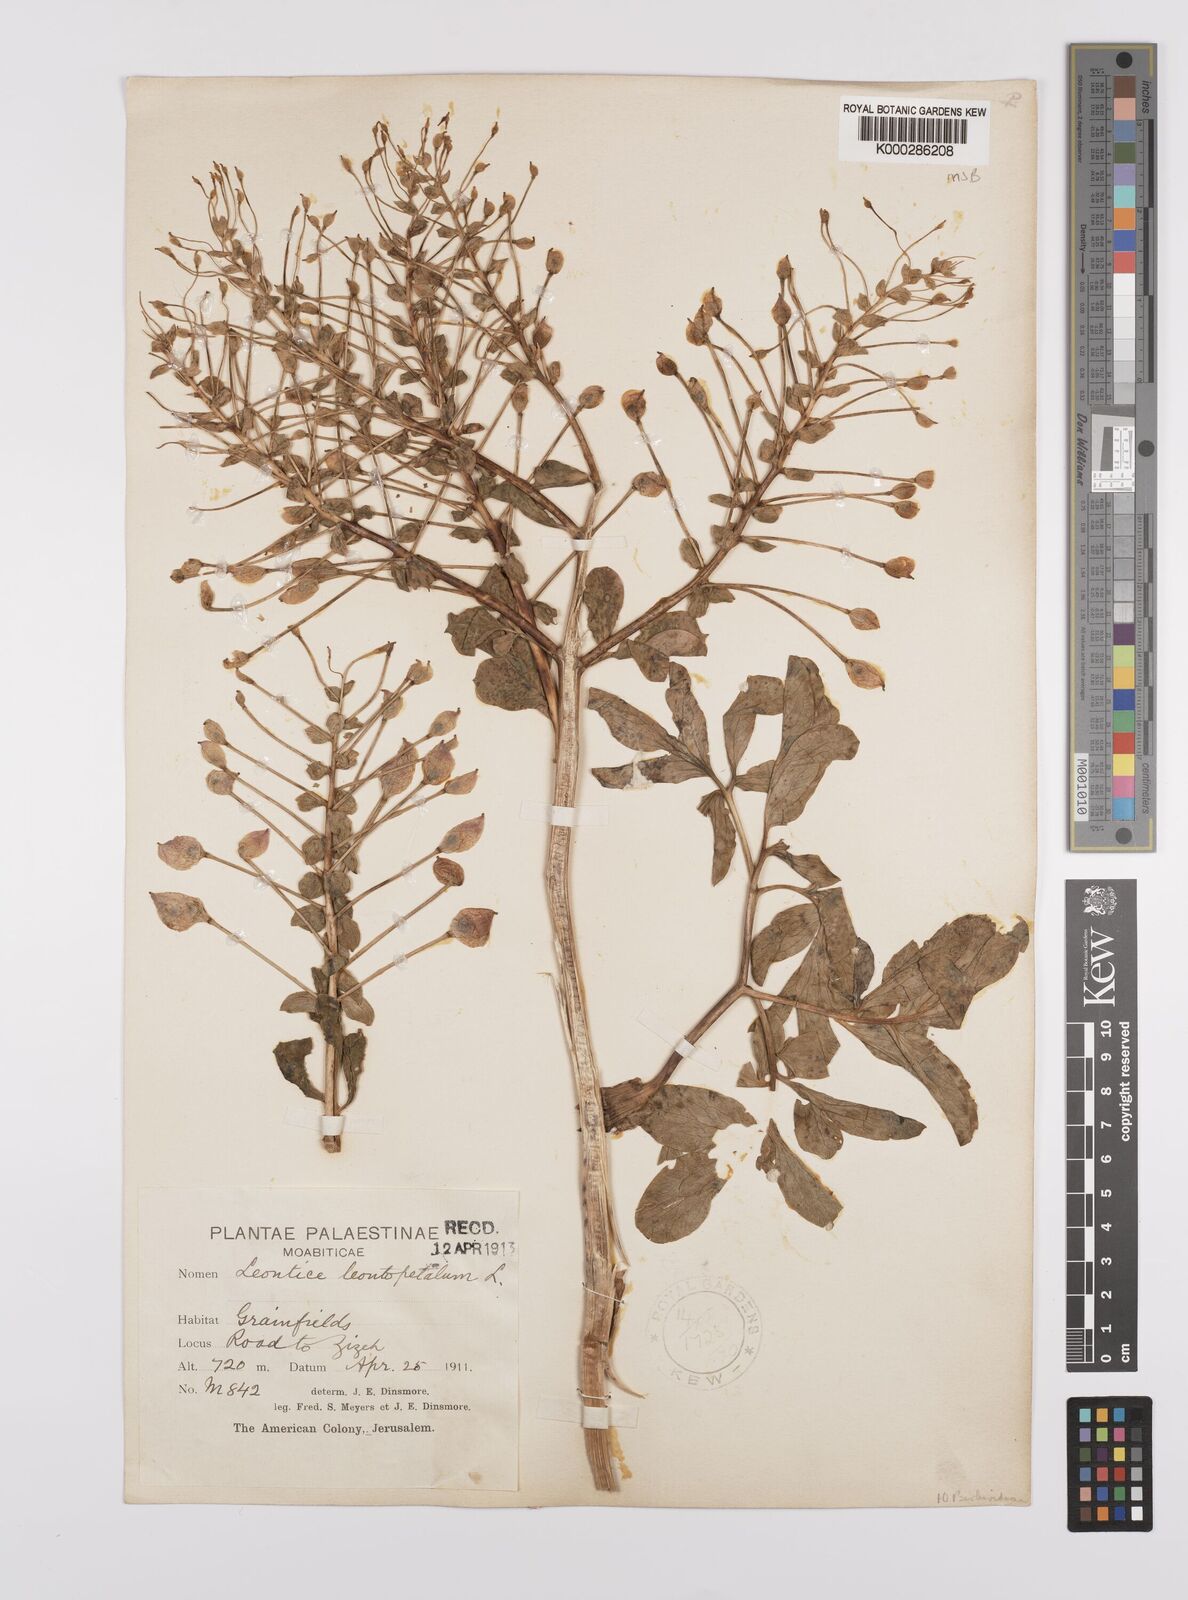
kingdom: Plantae
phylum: Tracheophyta
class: Magnoliopsida
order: Ranunculales
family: Berberidaceae
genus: Leontice
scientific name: Leontice leontopetalum
